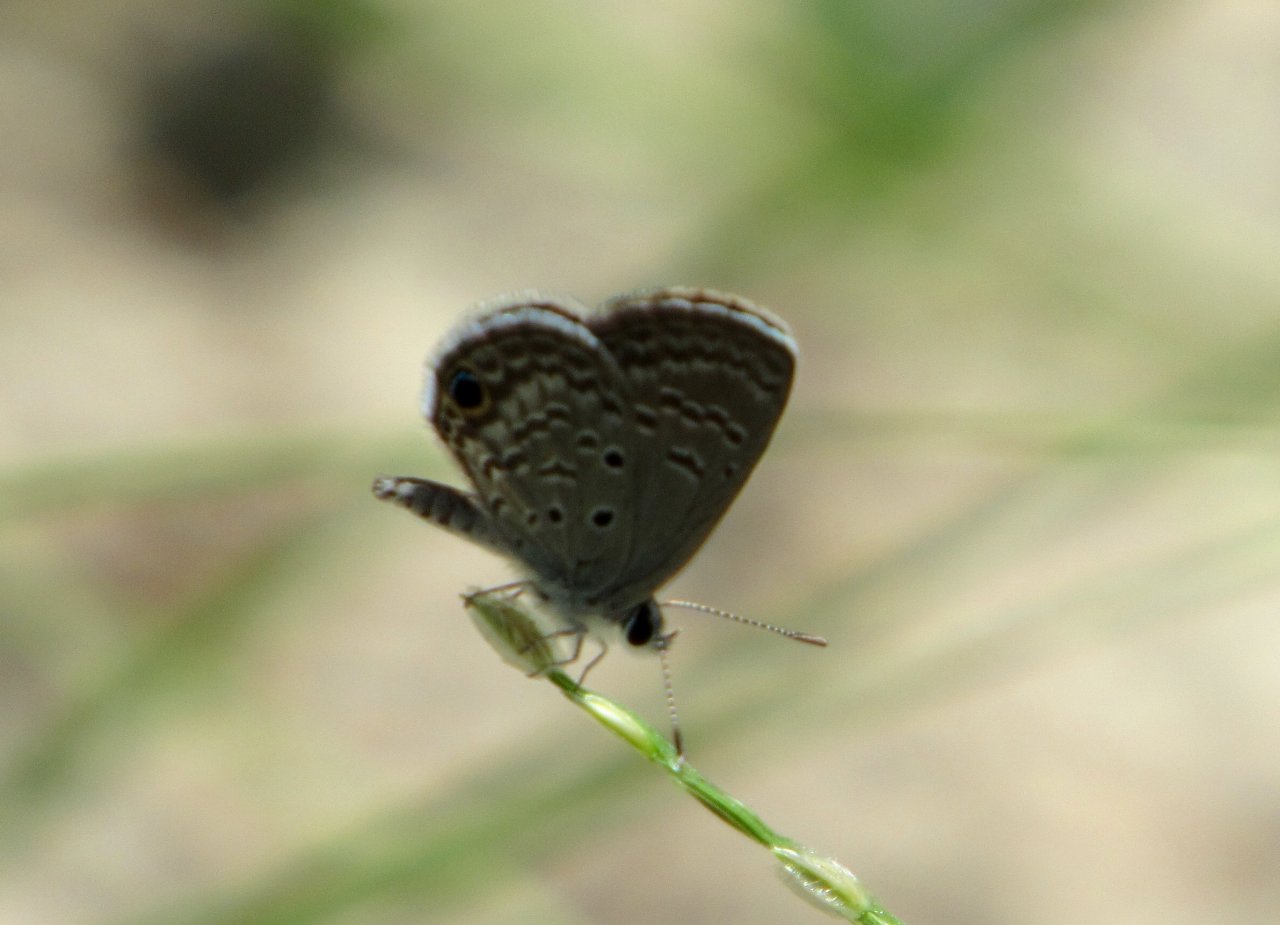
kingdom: Animalia
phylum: Arthropoda
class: Insecta
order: Lepidoptera
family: Lycaenidae
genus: Hemiargus
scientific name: Hemiargus ceraunus
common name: Ceraunus Blue
